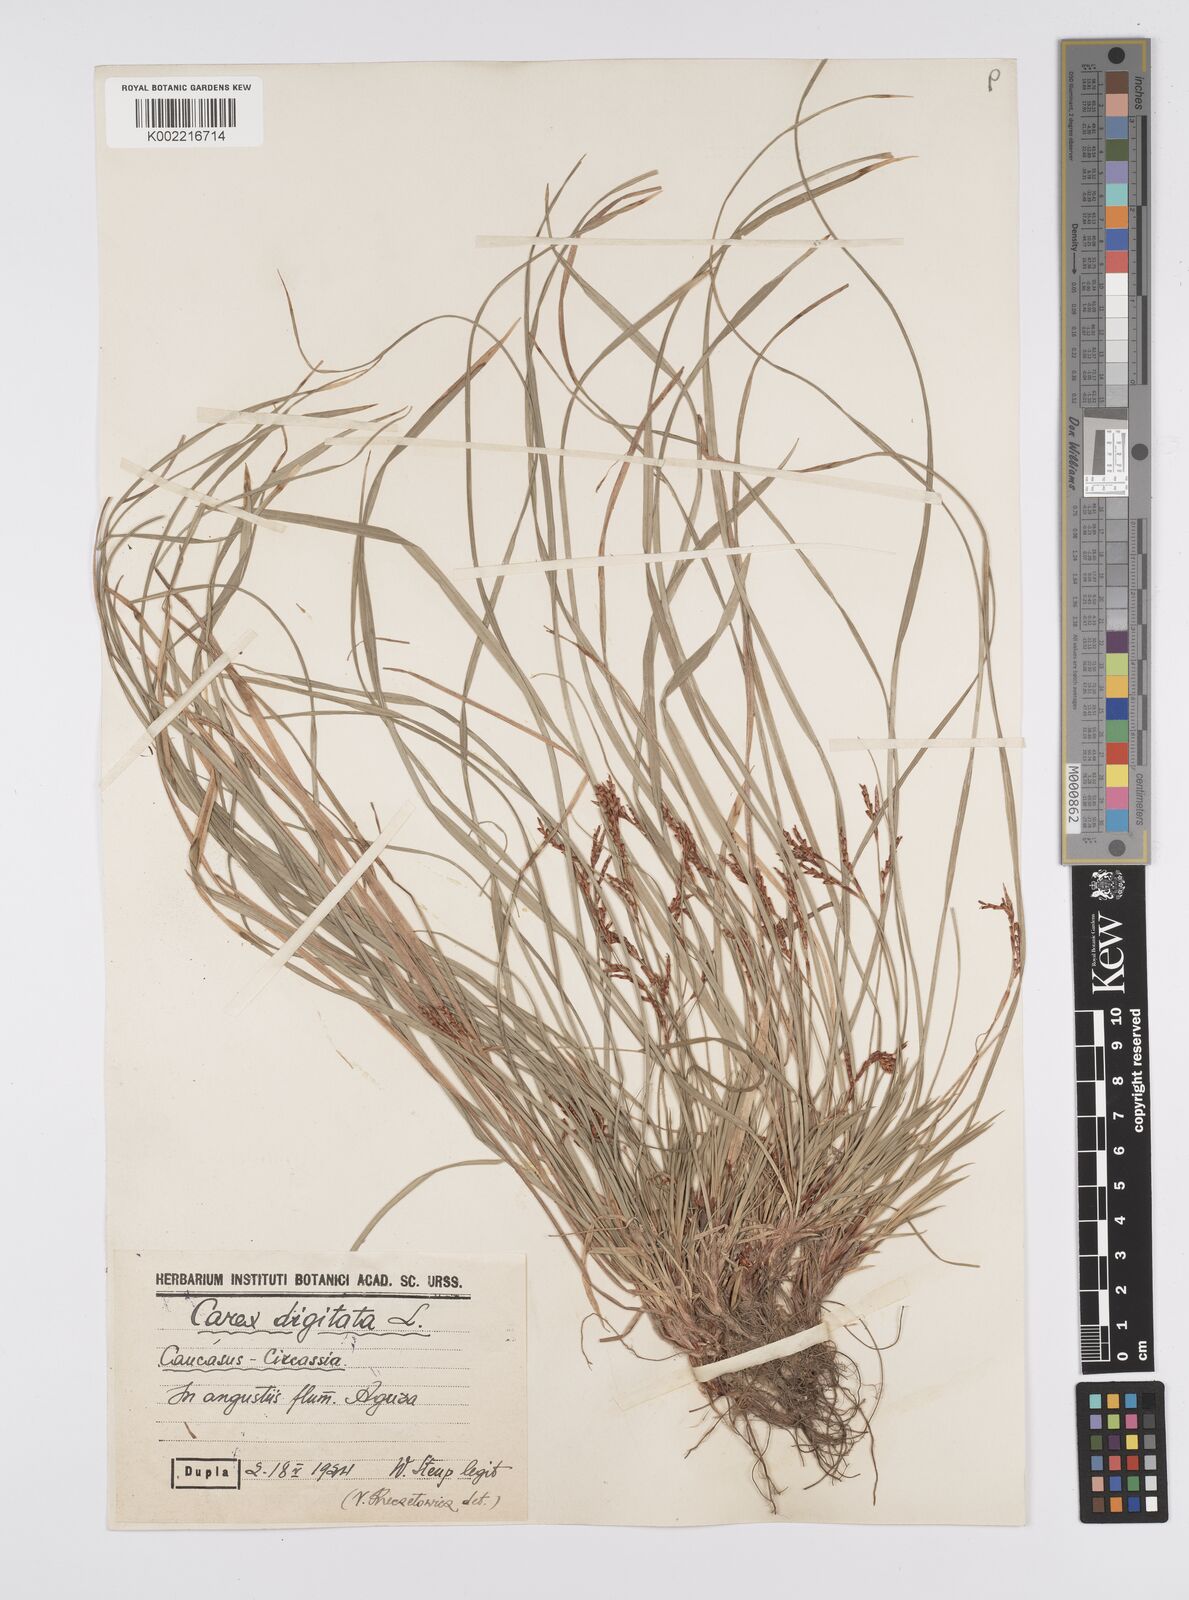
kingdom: Plantae
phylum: Tracheophyta
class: Liliopsida
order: Poales
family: Cyperaceae
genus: Carex
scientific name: Carex digitata
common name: Fingered sedge
